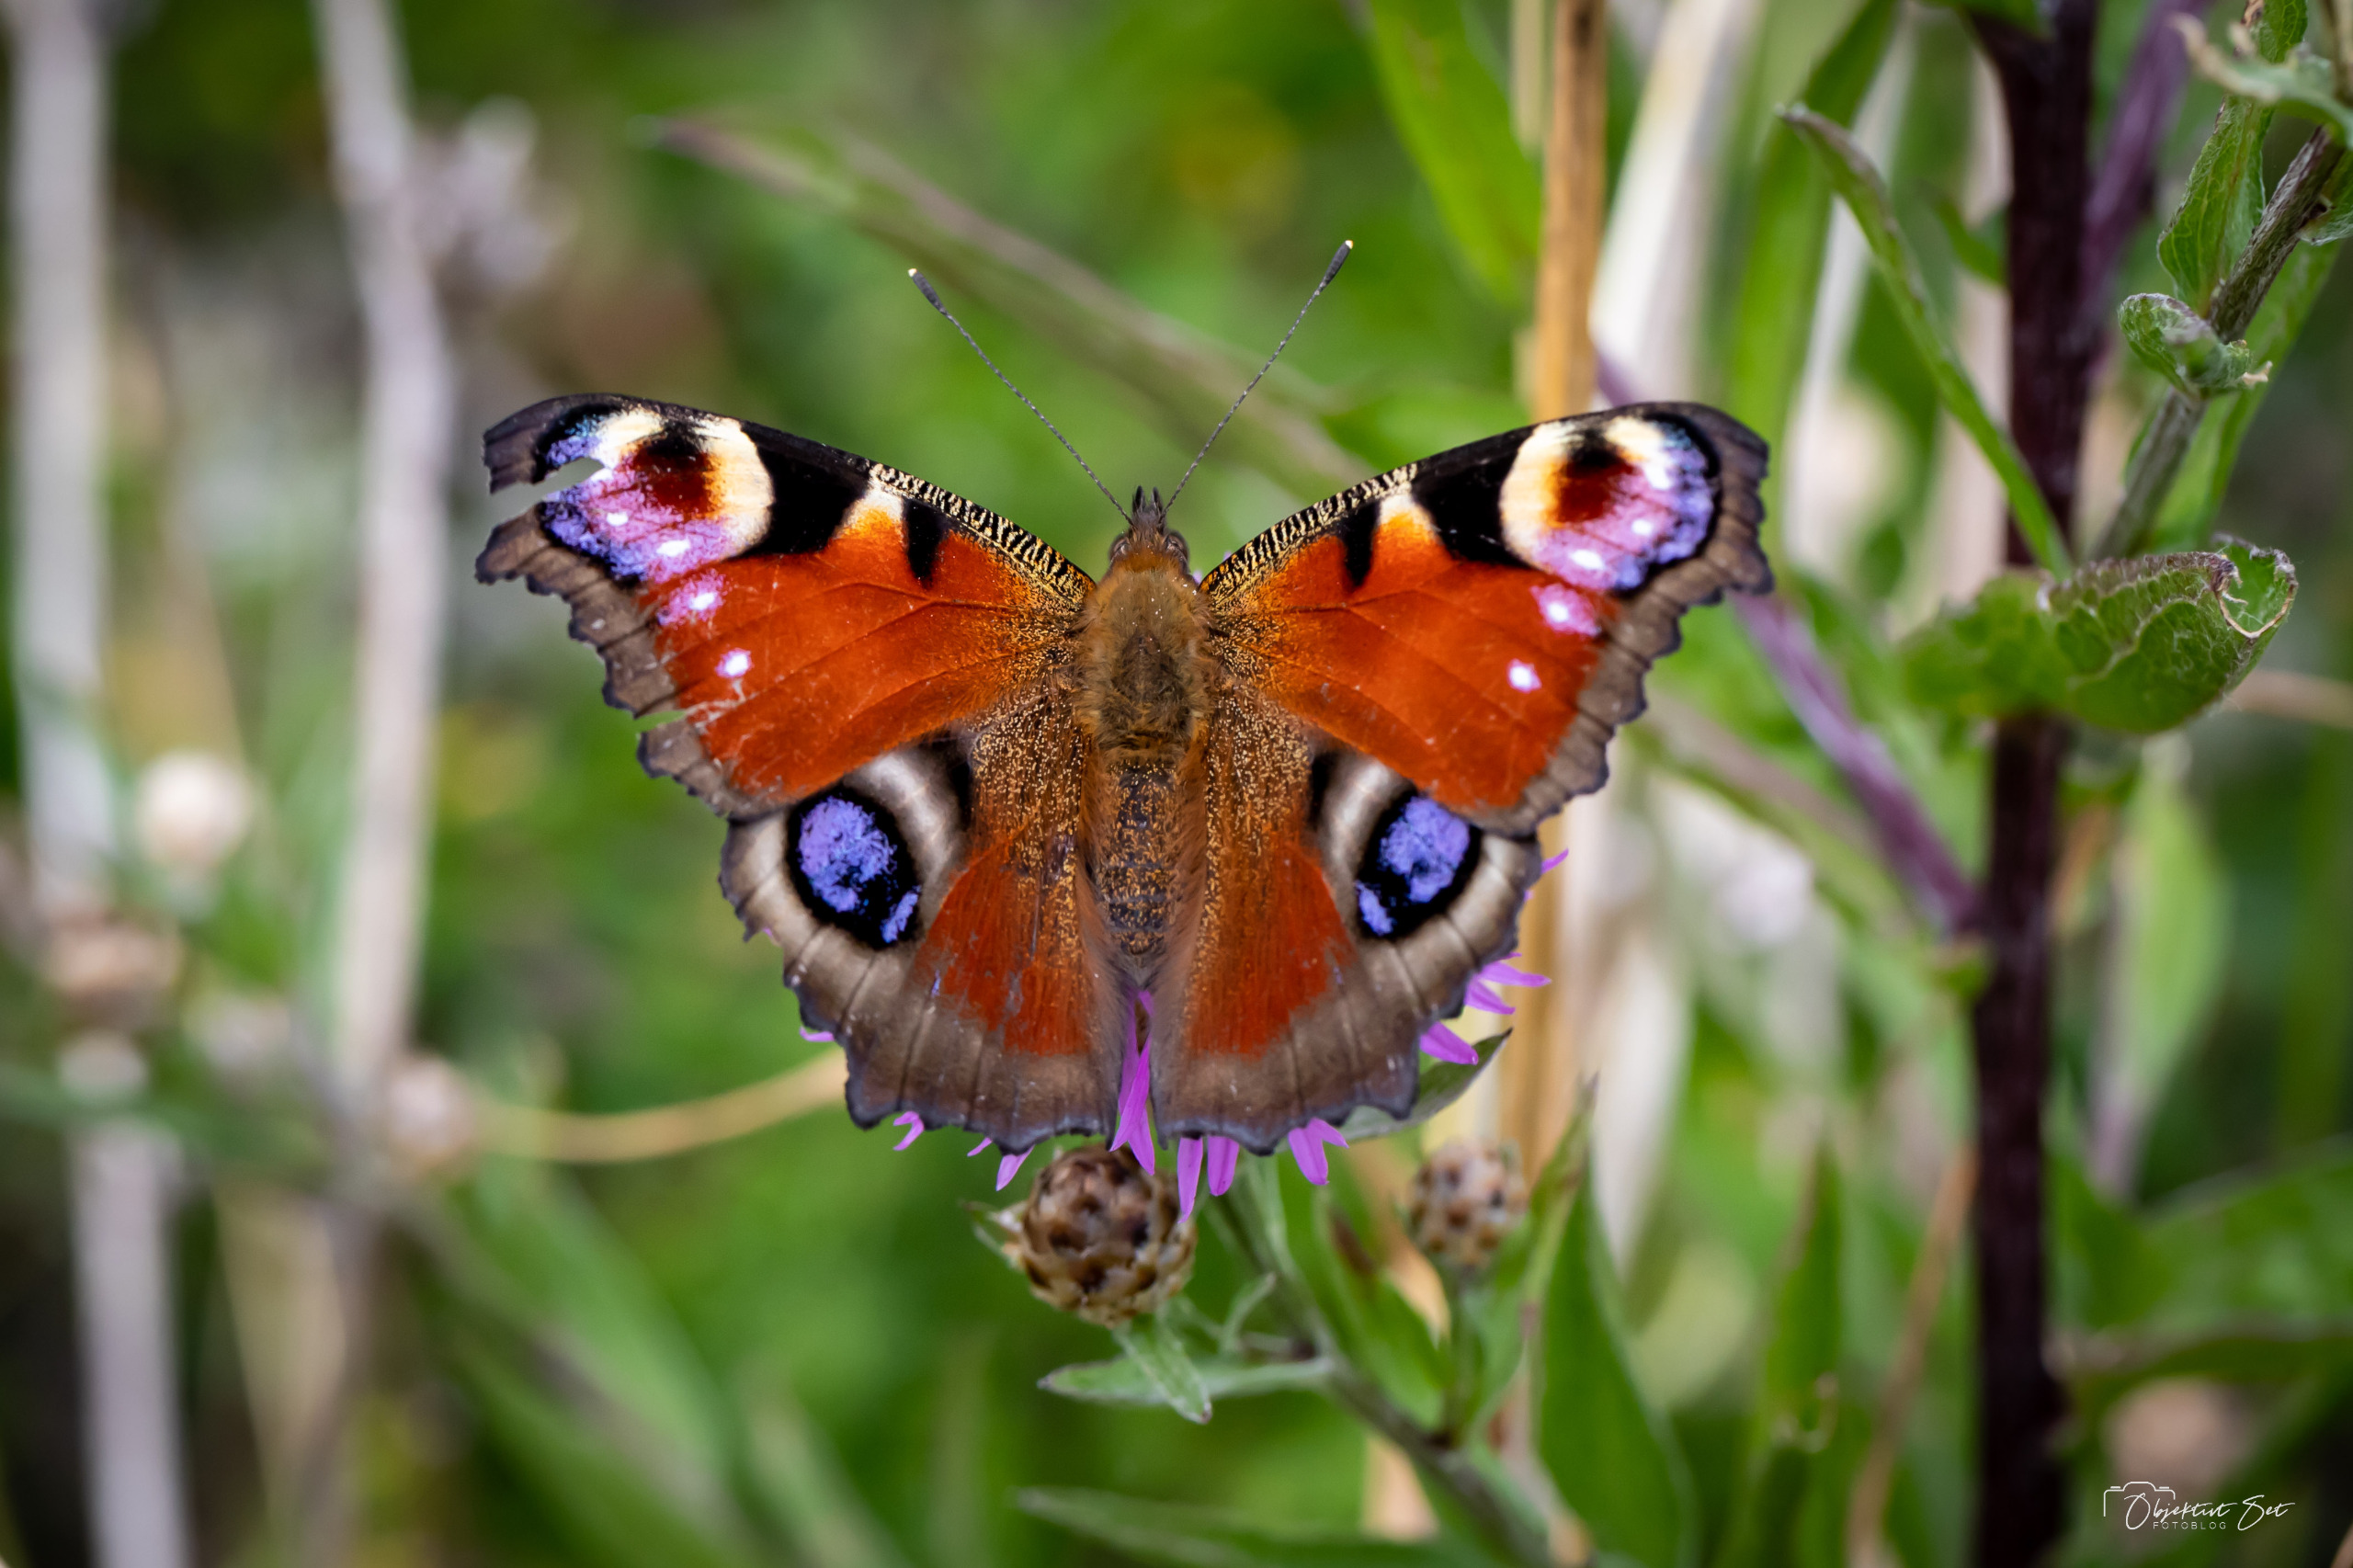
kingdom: Animalia
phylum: Arthropoda
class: Insecta
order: Lepidoptera
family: Nymphalidae
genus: Aglais
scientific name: Aglais io
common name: Dagpåfugleøje
